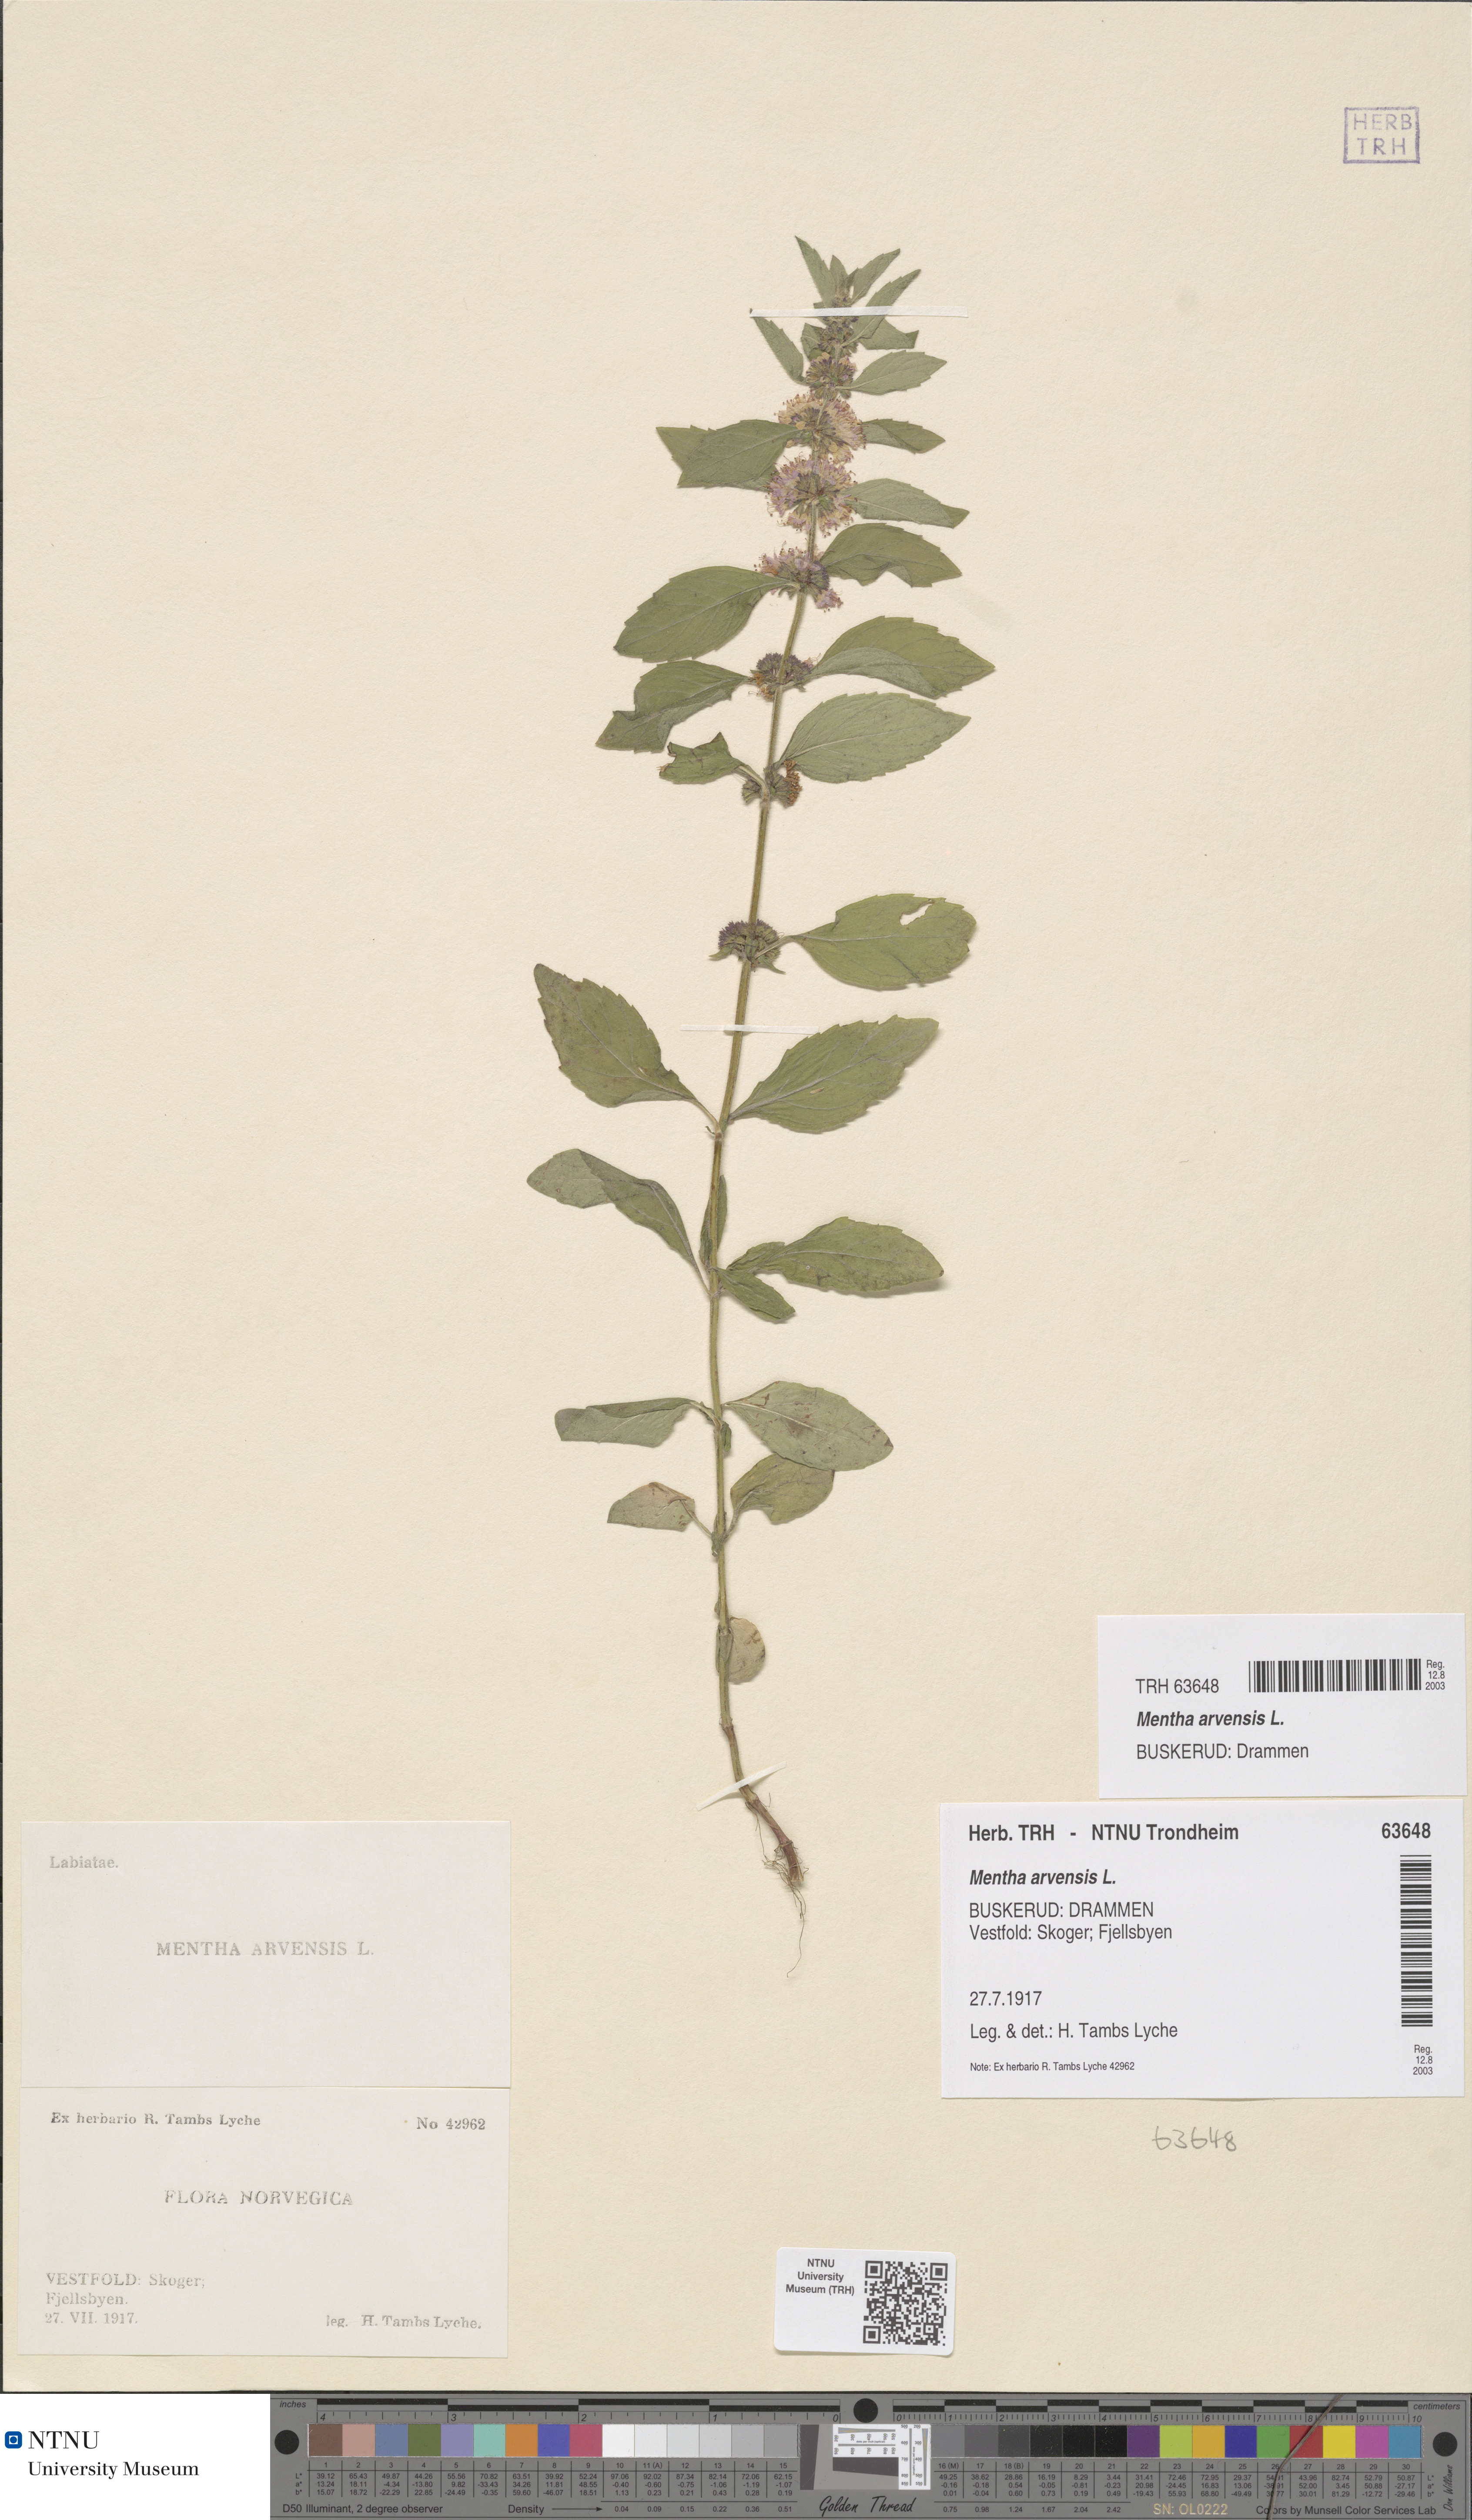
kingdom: Plantae
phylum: Tracheophyta
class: Magnoliopsida
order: Lamiales
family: Lamiaceae
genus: Mentha
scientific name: Mentha arvensis
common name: Corn mint
